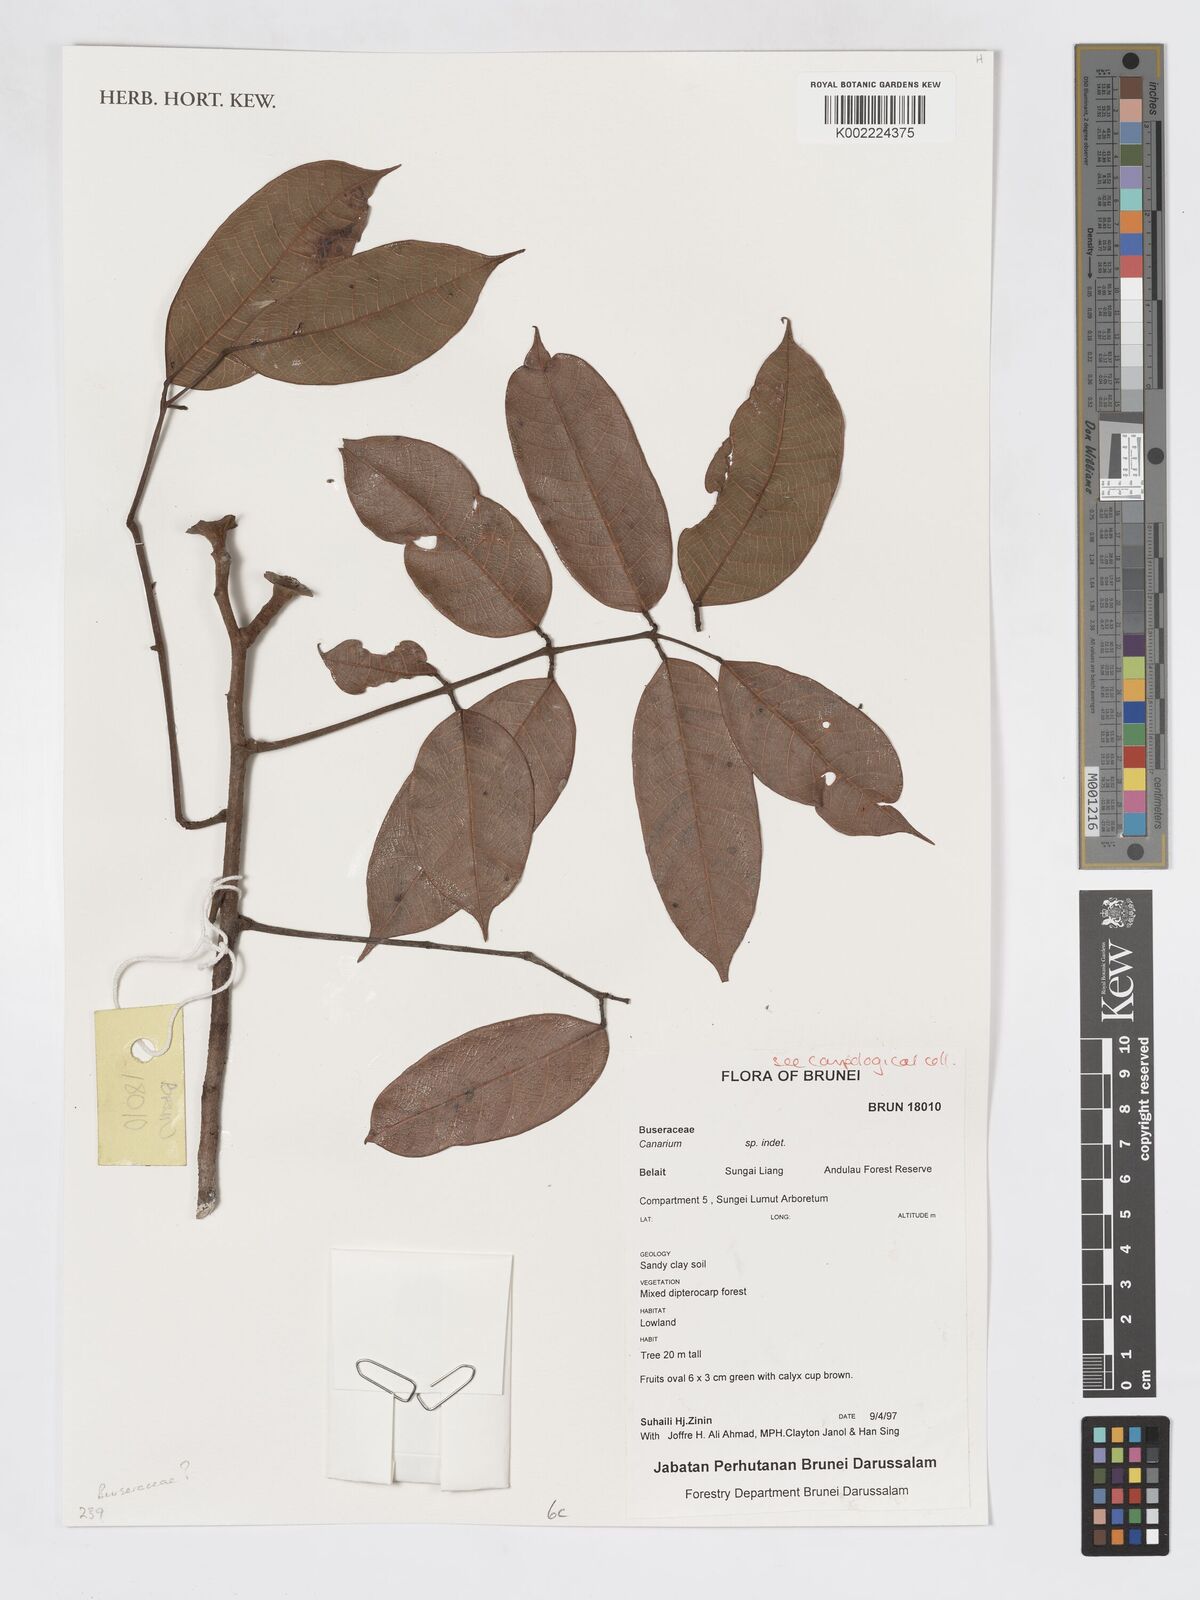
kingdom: Plantae
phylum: Tracheophyta
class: Magnoliopsida
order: Sapindales
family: Burseraceae
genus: Canarium
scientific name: Canarium
